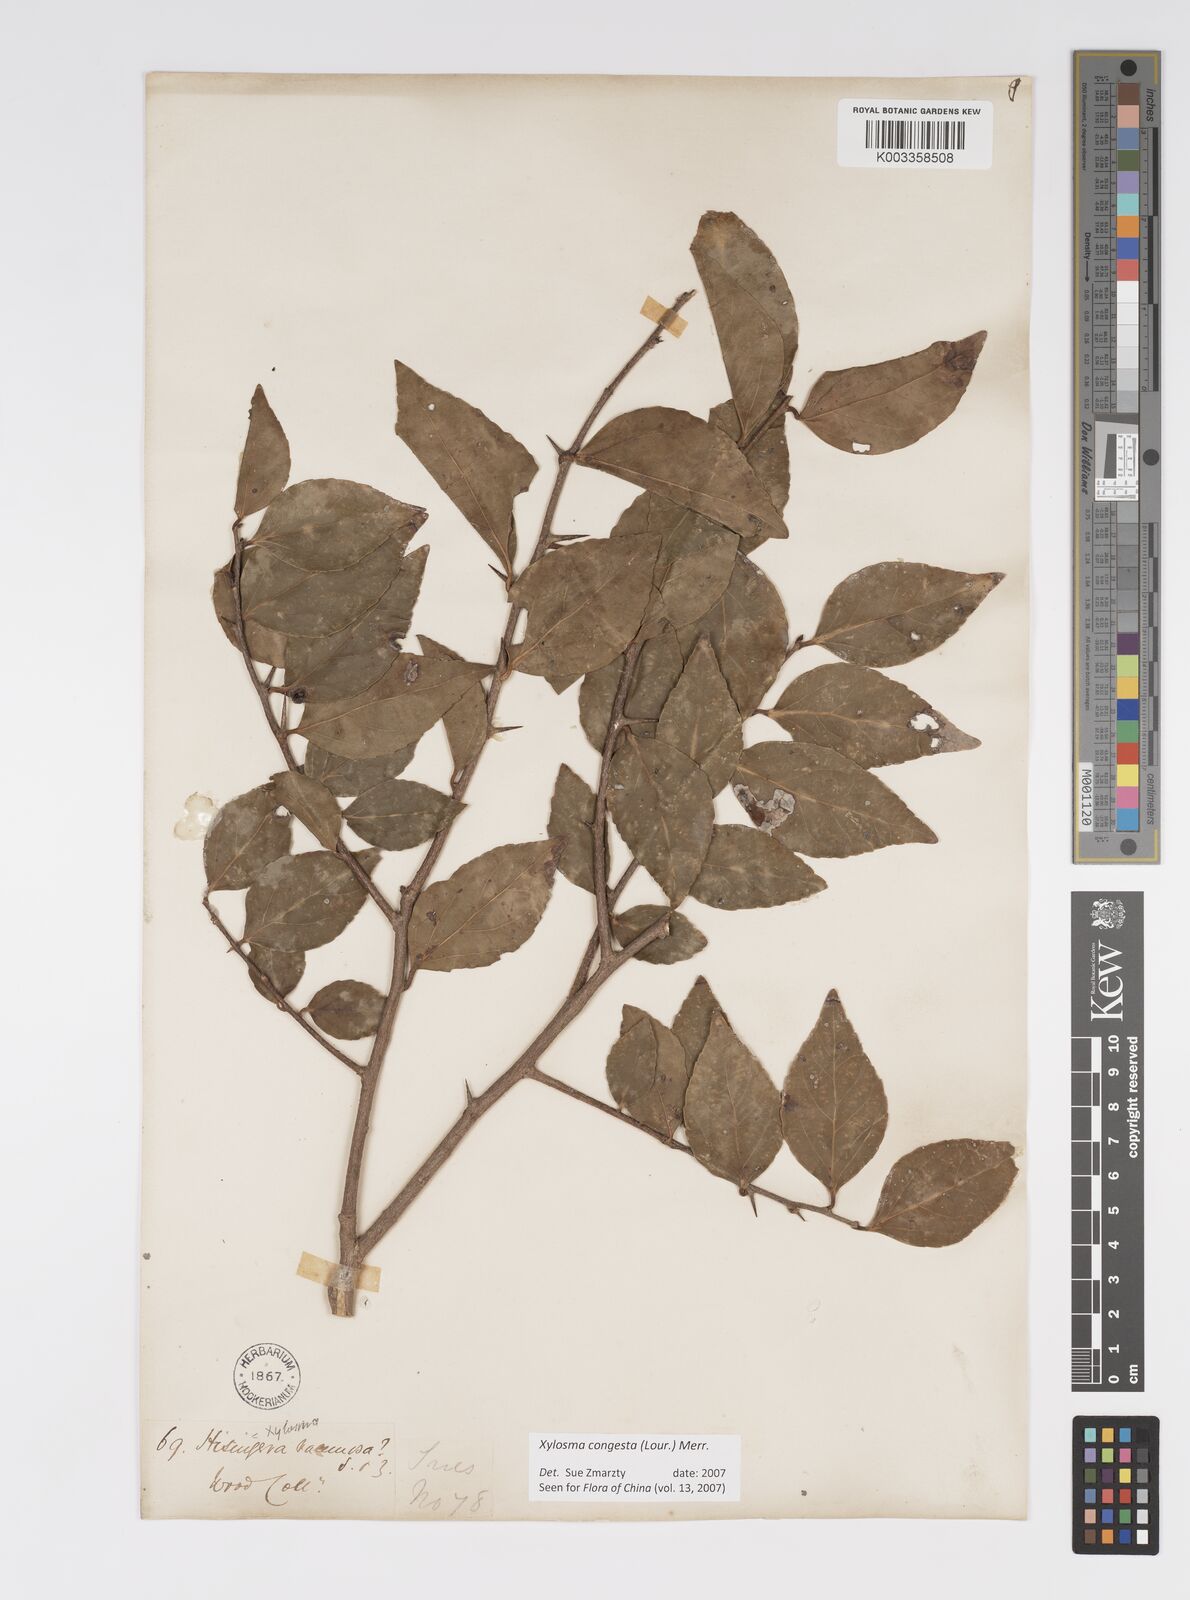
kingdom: Plantae
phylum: Tracheophyta
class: Magnoliopsida
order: Malpighiales
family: Salicaceae
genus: Xylosma
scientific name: Xylosma racemosum
